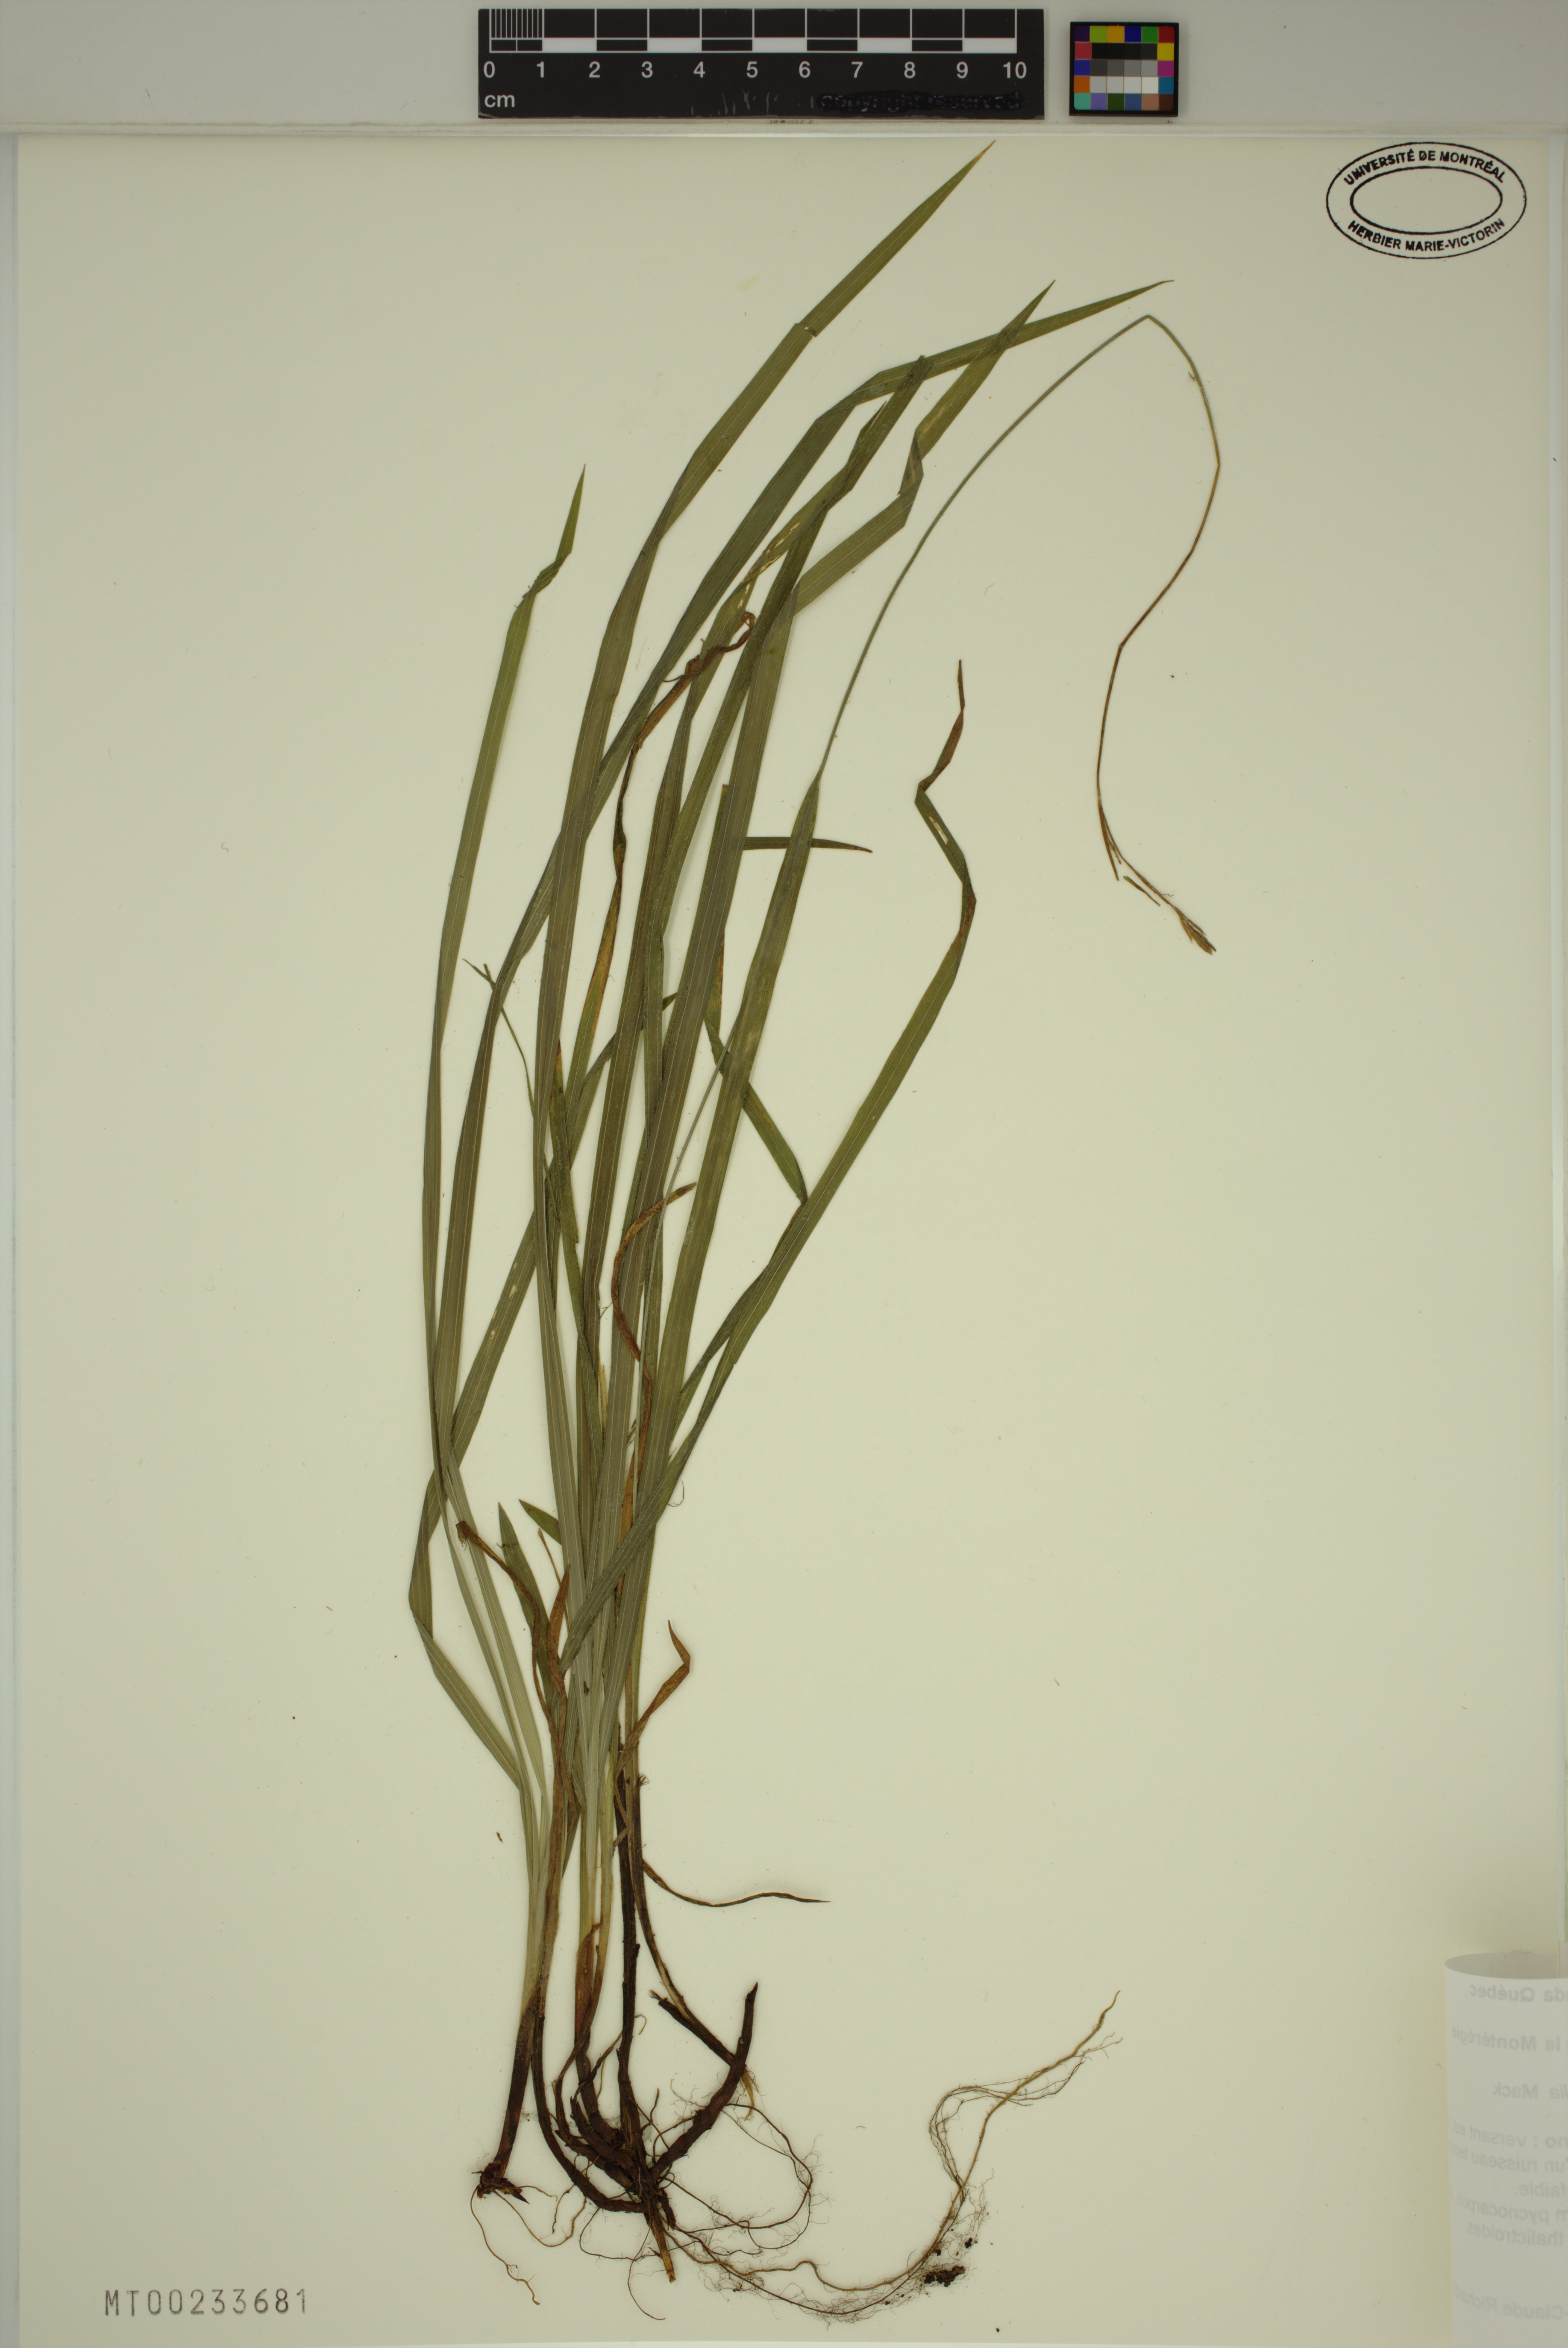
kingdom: Plantae
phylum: Tracheophyta
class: Liliopsida
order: Poales
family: Cyperaceae
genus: Carex
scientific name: Carex hirtifolia
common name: Hairy sedge
